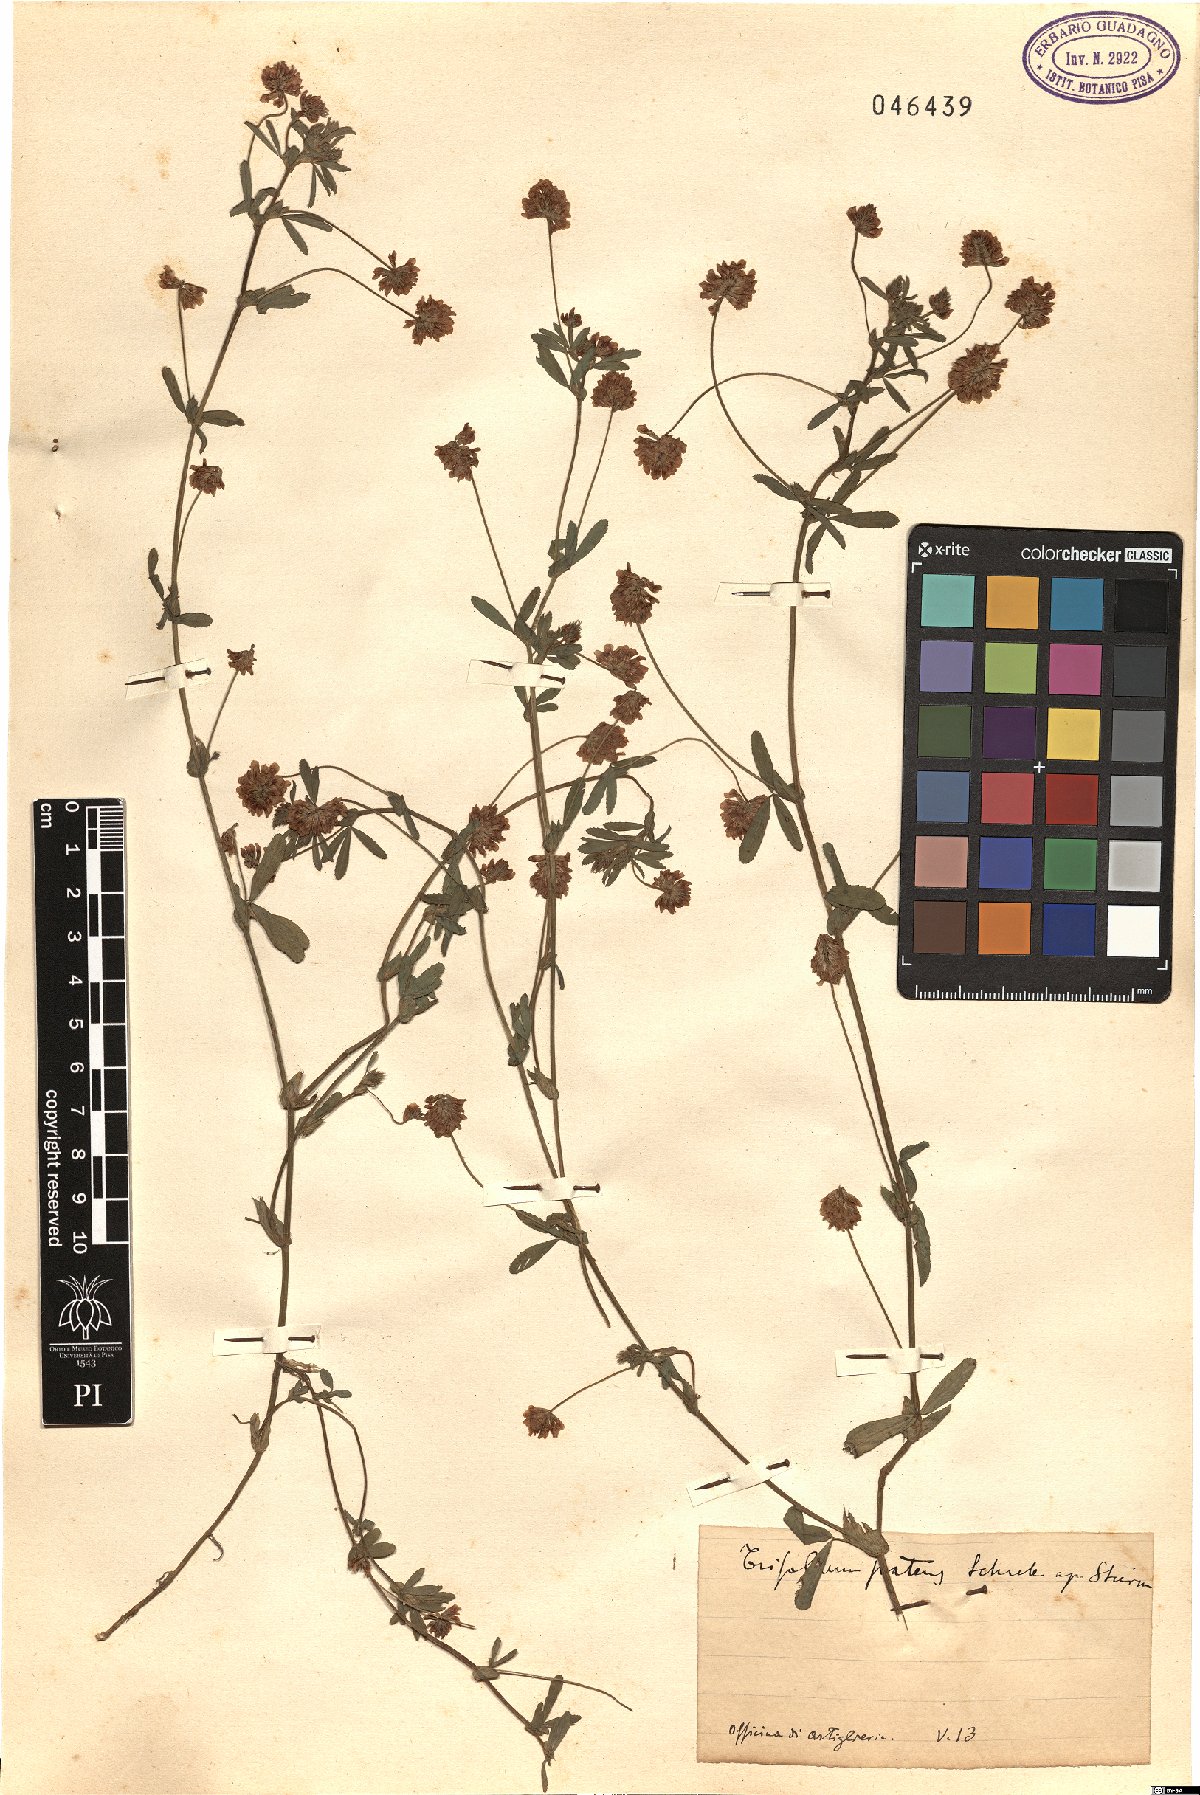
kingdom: Plantae
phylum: Tracheophyta
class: Magnoliopsida
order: Fabales
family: Fabaceae
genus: Trifolium
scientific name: Trifolium patens
